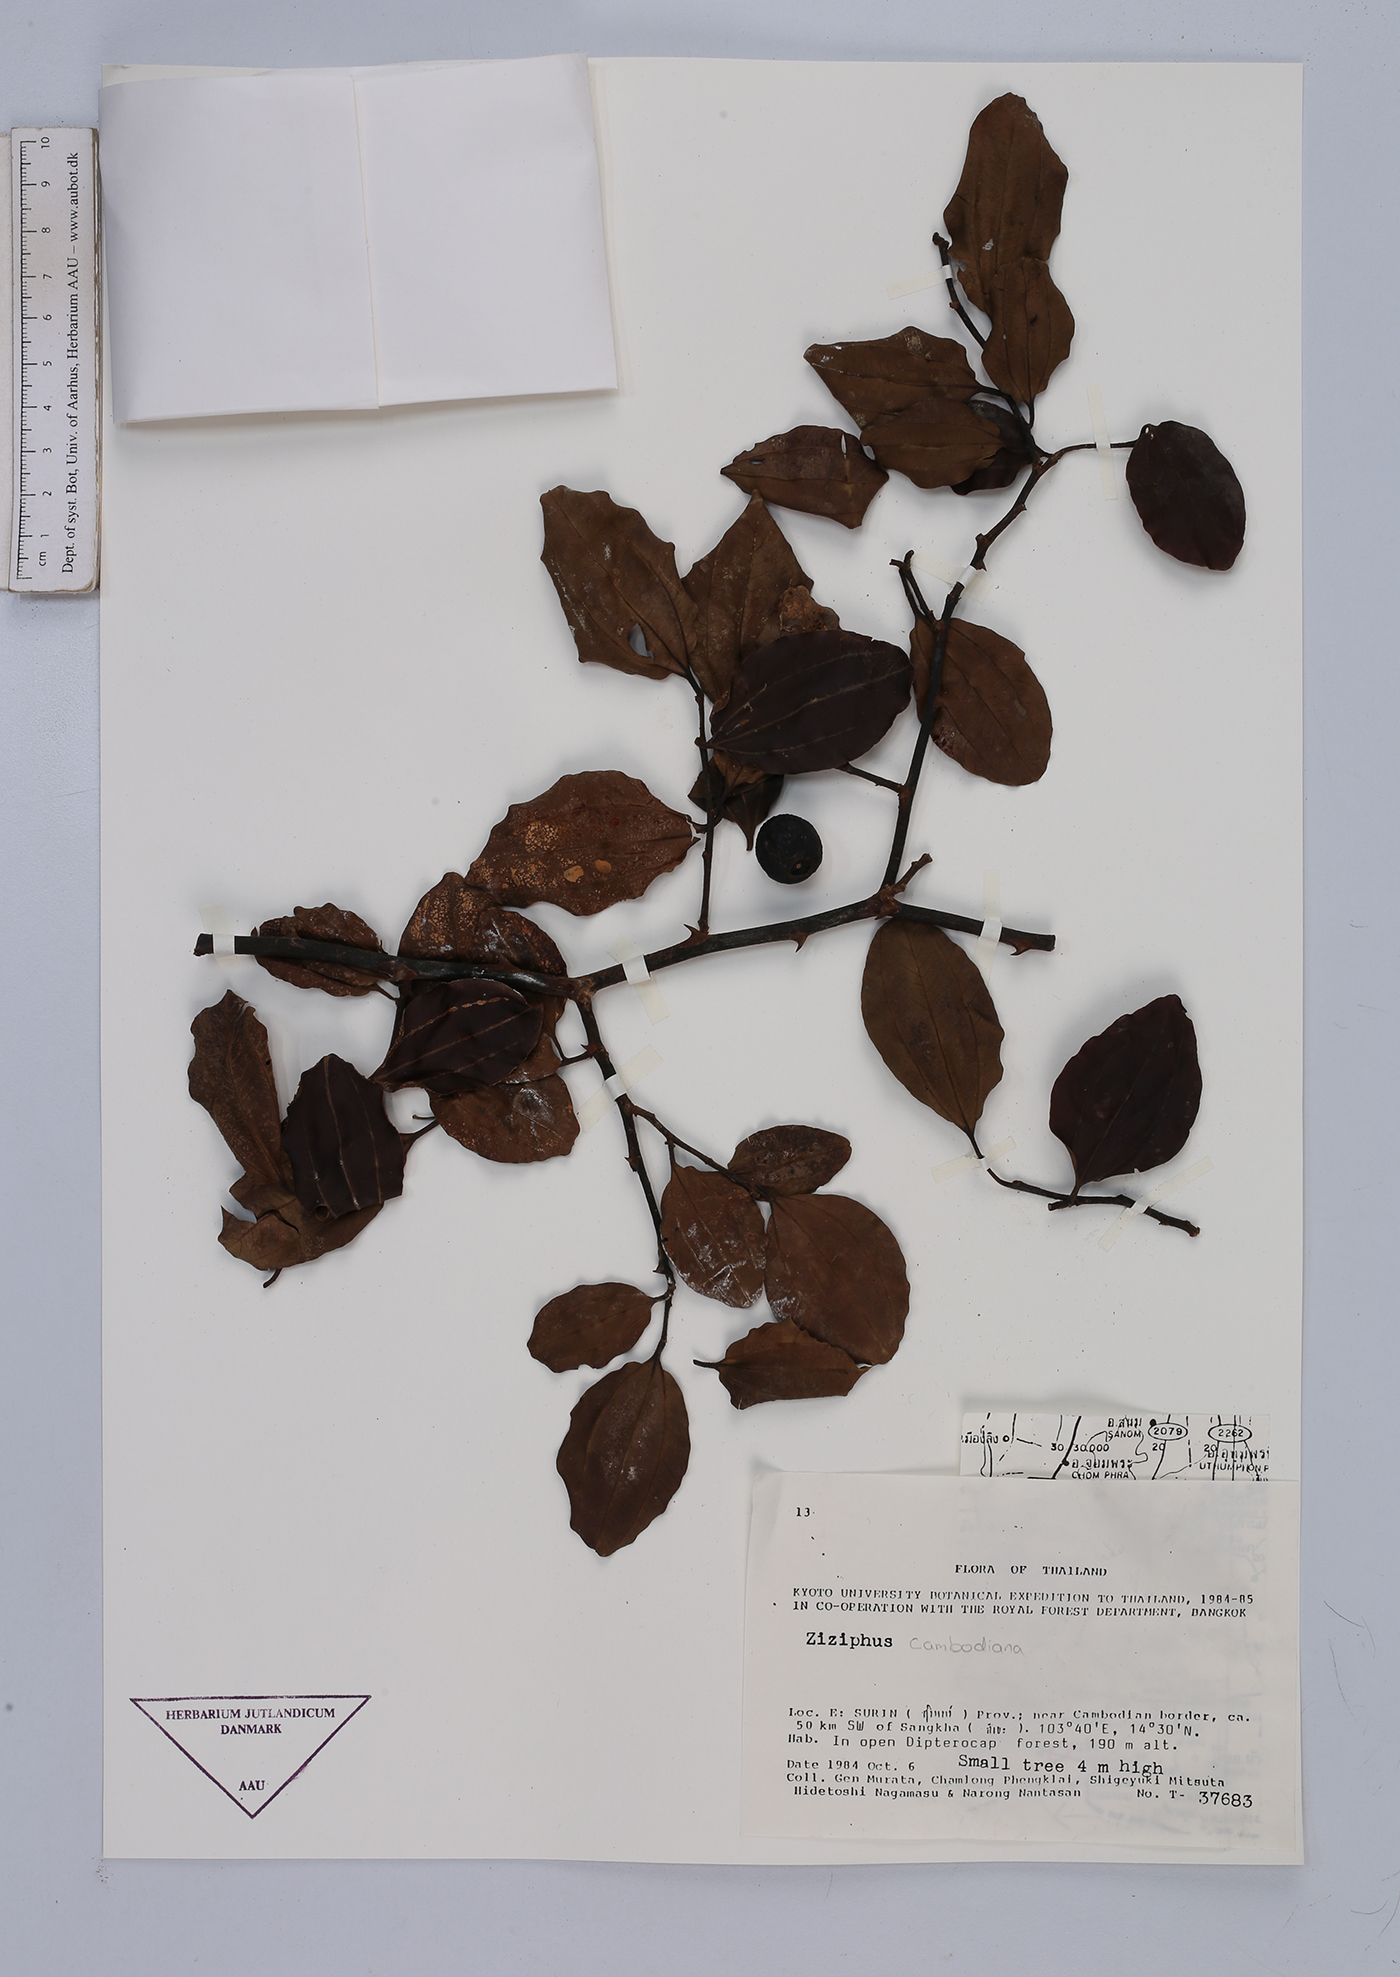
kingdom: Plantae
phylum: Tracheophyta
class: Magnoliopsida
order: Rosales
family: Rhamnaceae
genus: Ziziphus
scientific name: Ziziphus cambodiana
